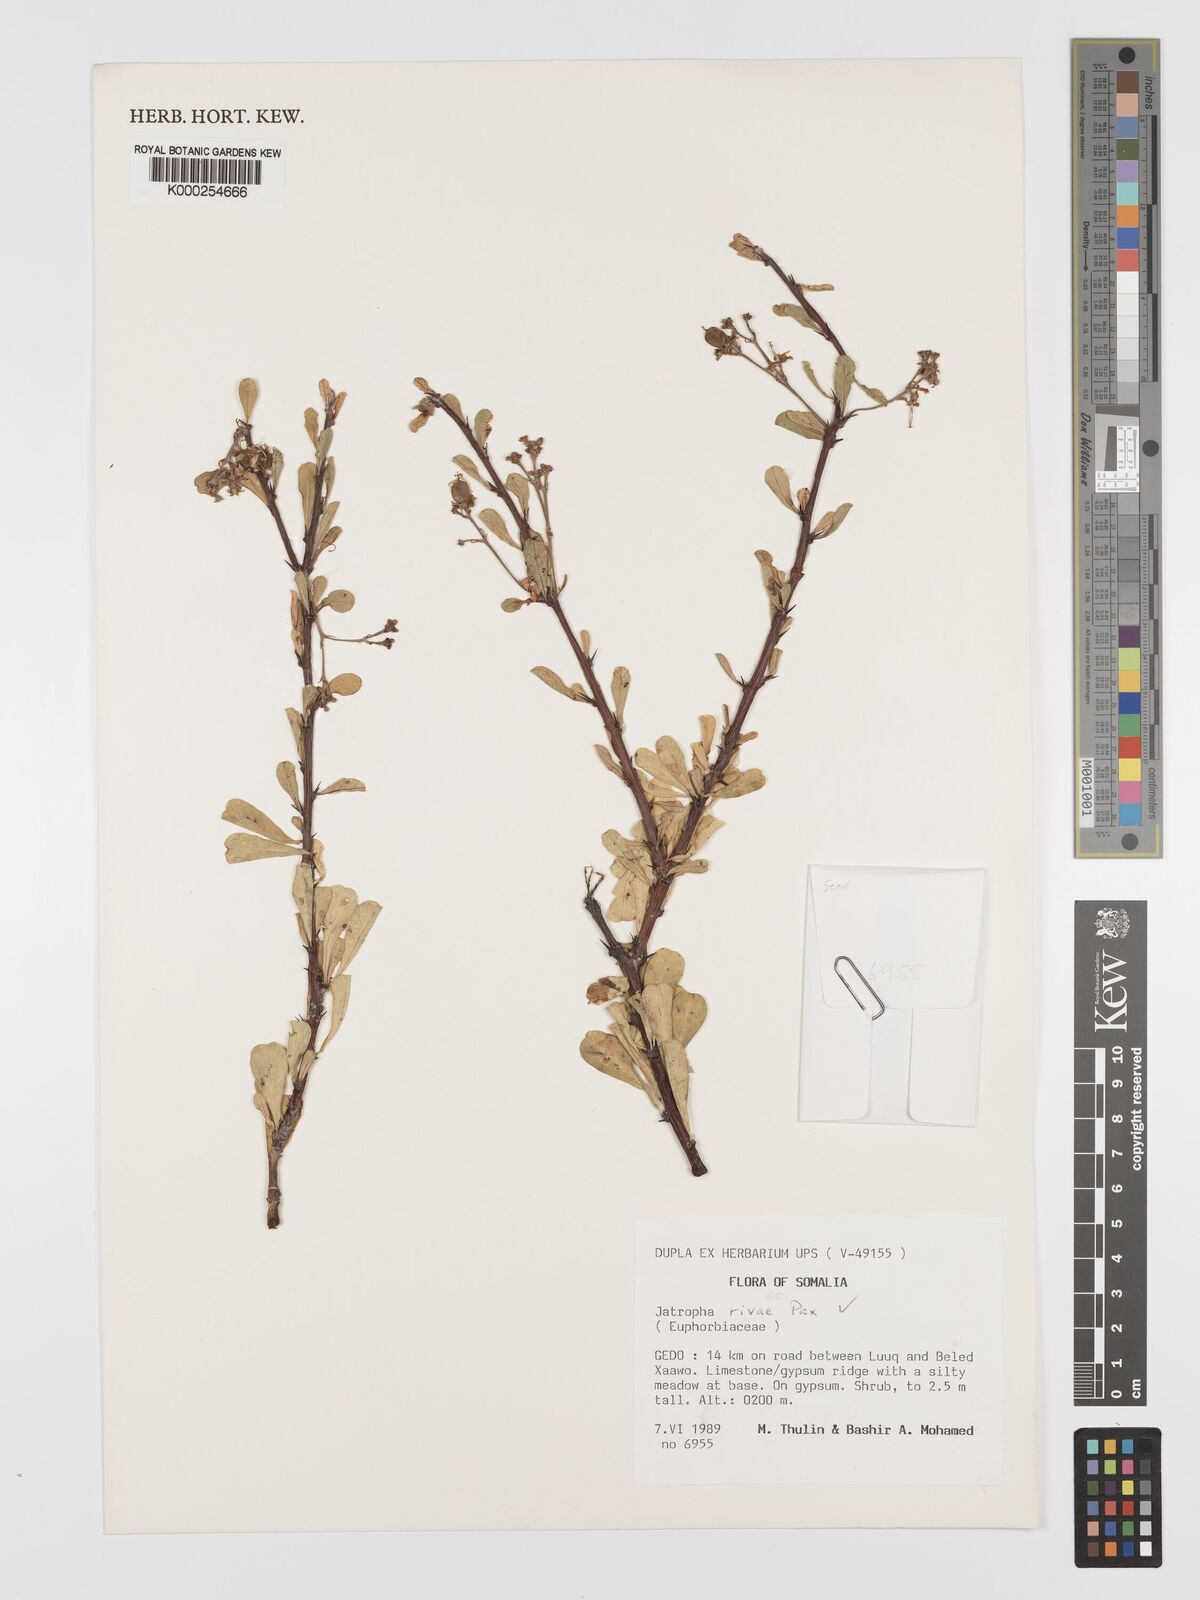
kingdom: Plantae
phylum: Tracheophyta
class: Magnoliopsida
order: Malpighiales
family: Euphorbiaceae
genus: Jatropha
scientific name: Jatropha rivae
